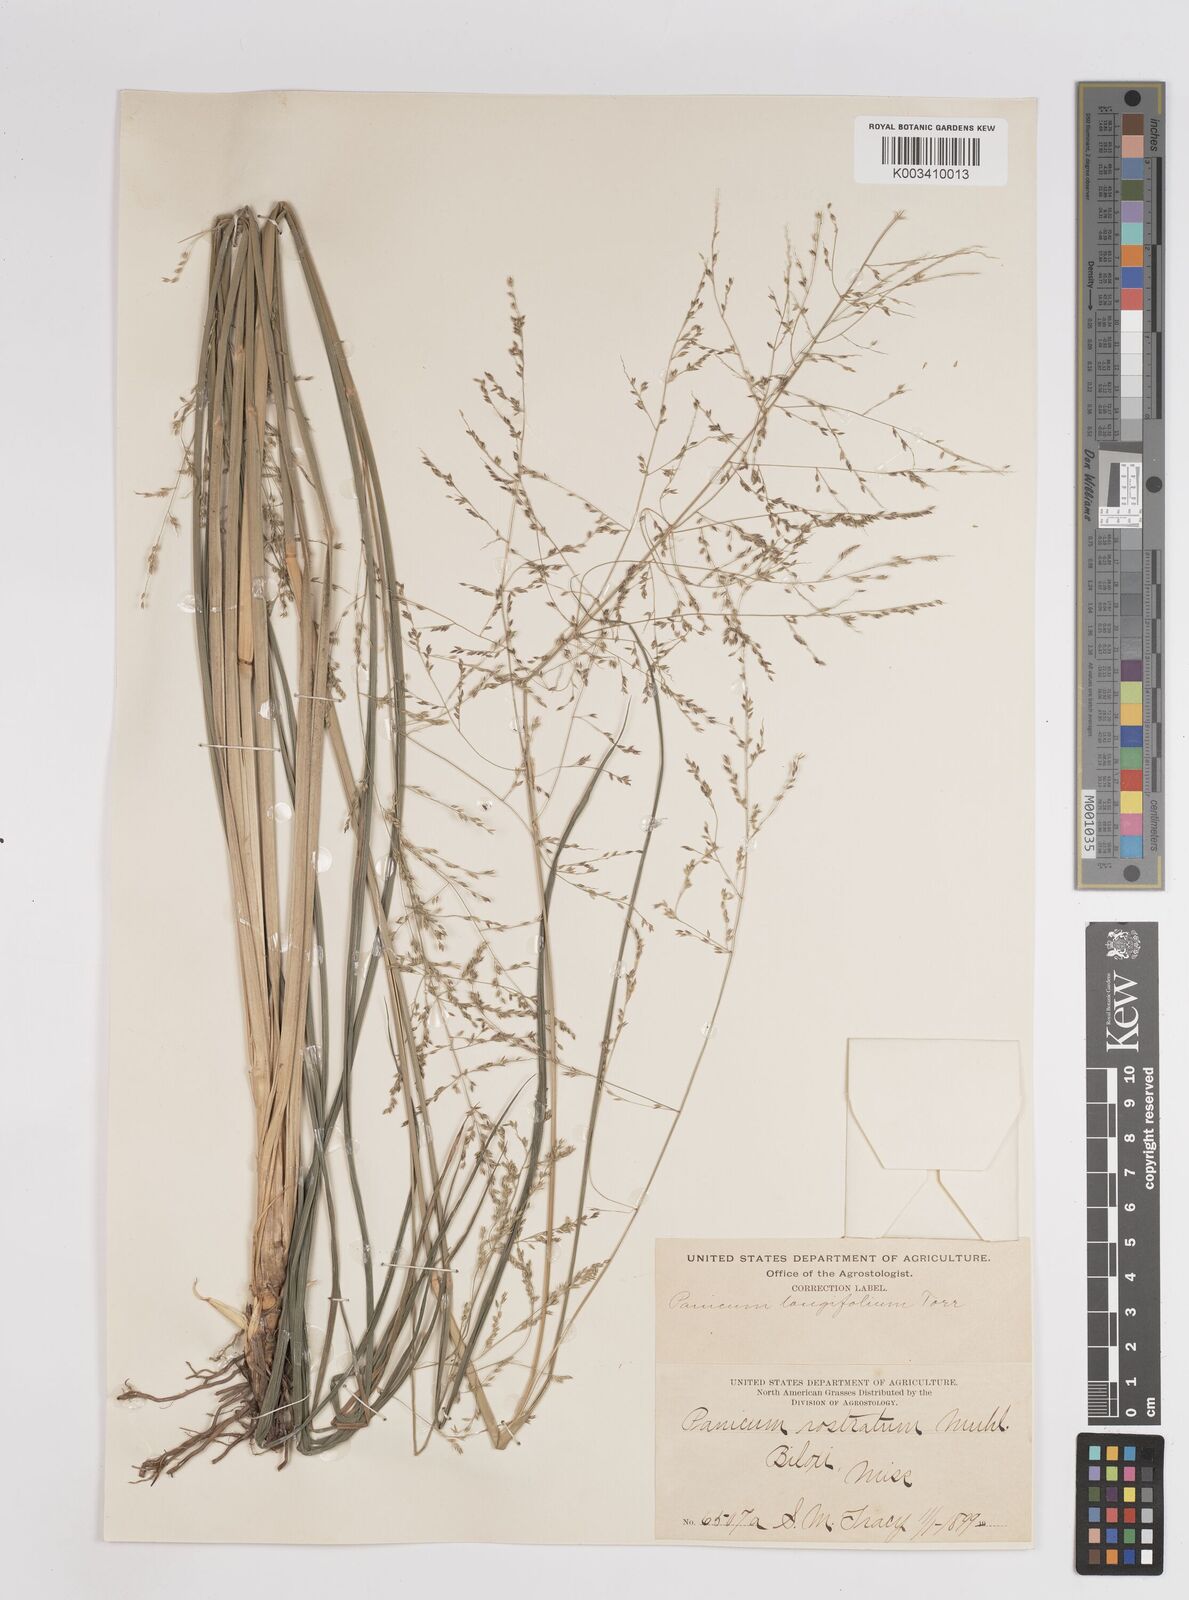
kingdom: Plantae
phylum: Tracheophyta
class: Liliopsida
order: Poales
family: Poaceae
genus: Coleataenia
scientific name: Coleataenia longifolia
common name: Long-leaved panicgrass
